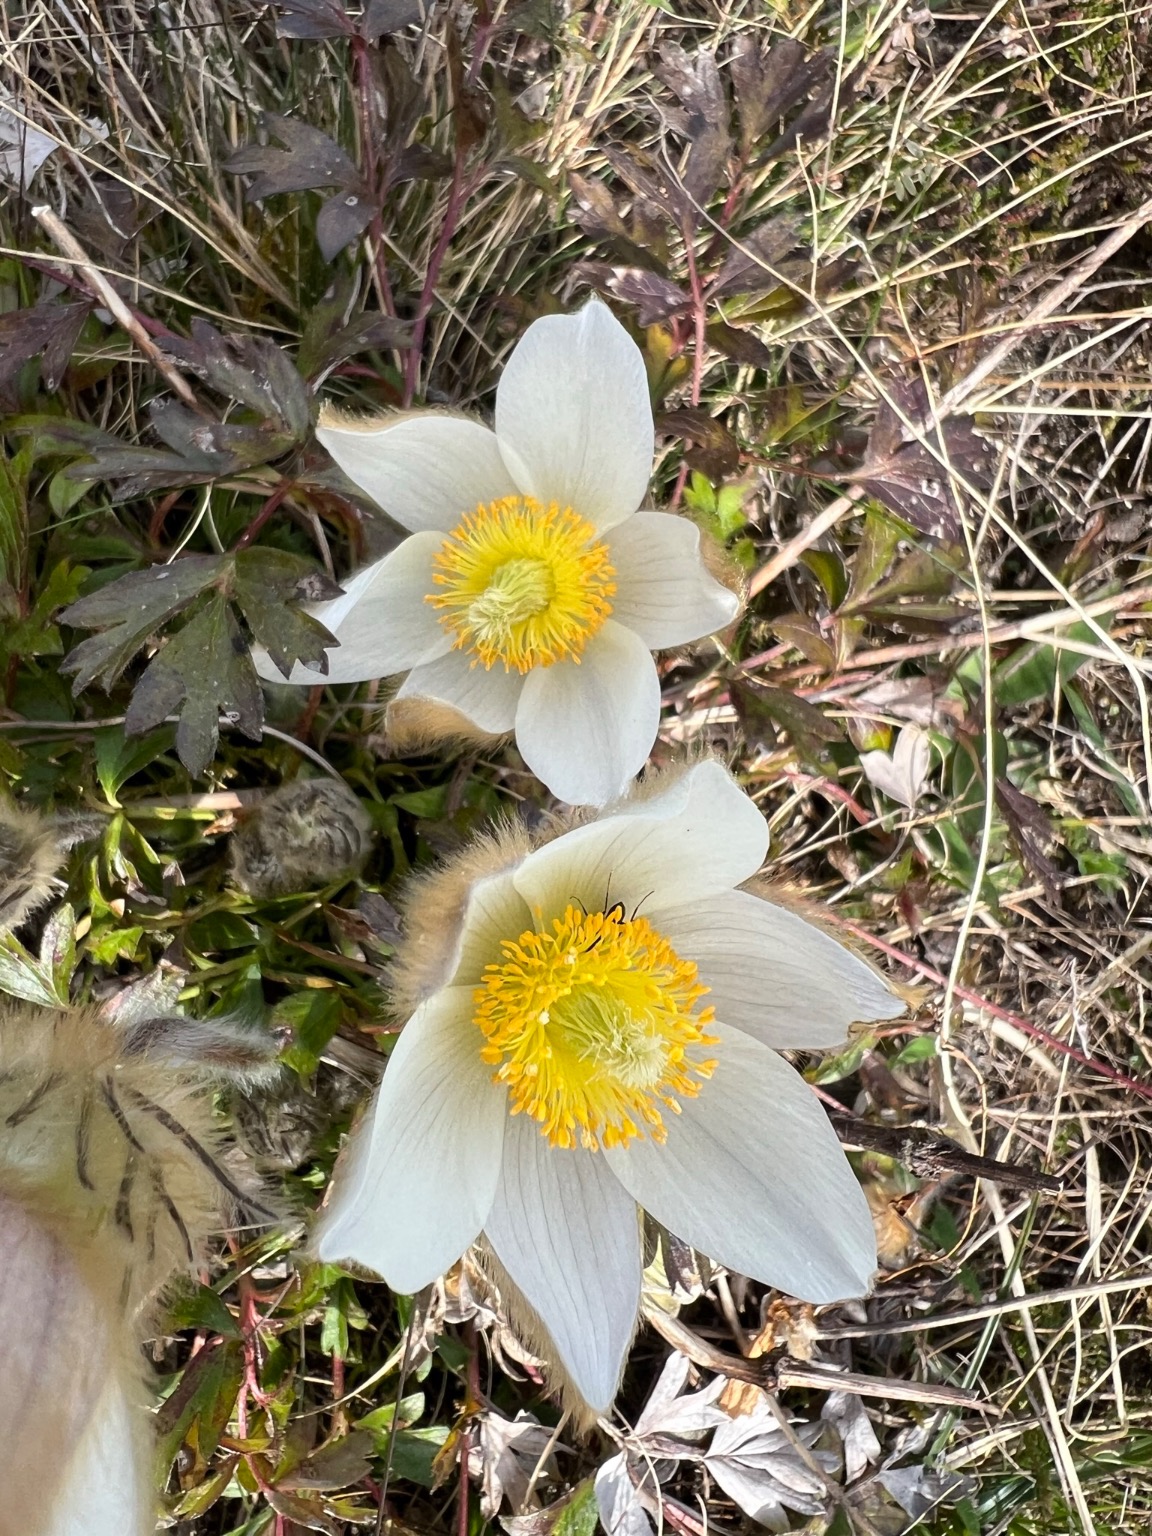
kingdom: Plantae
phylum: Tracheophyta
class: Magnoliopsida
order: Ranunculales
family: Ranunculaceae
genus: Pulsatilla
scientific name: Pulsatilla vernalis
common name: Vår-kobjælde
